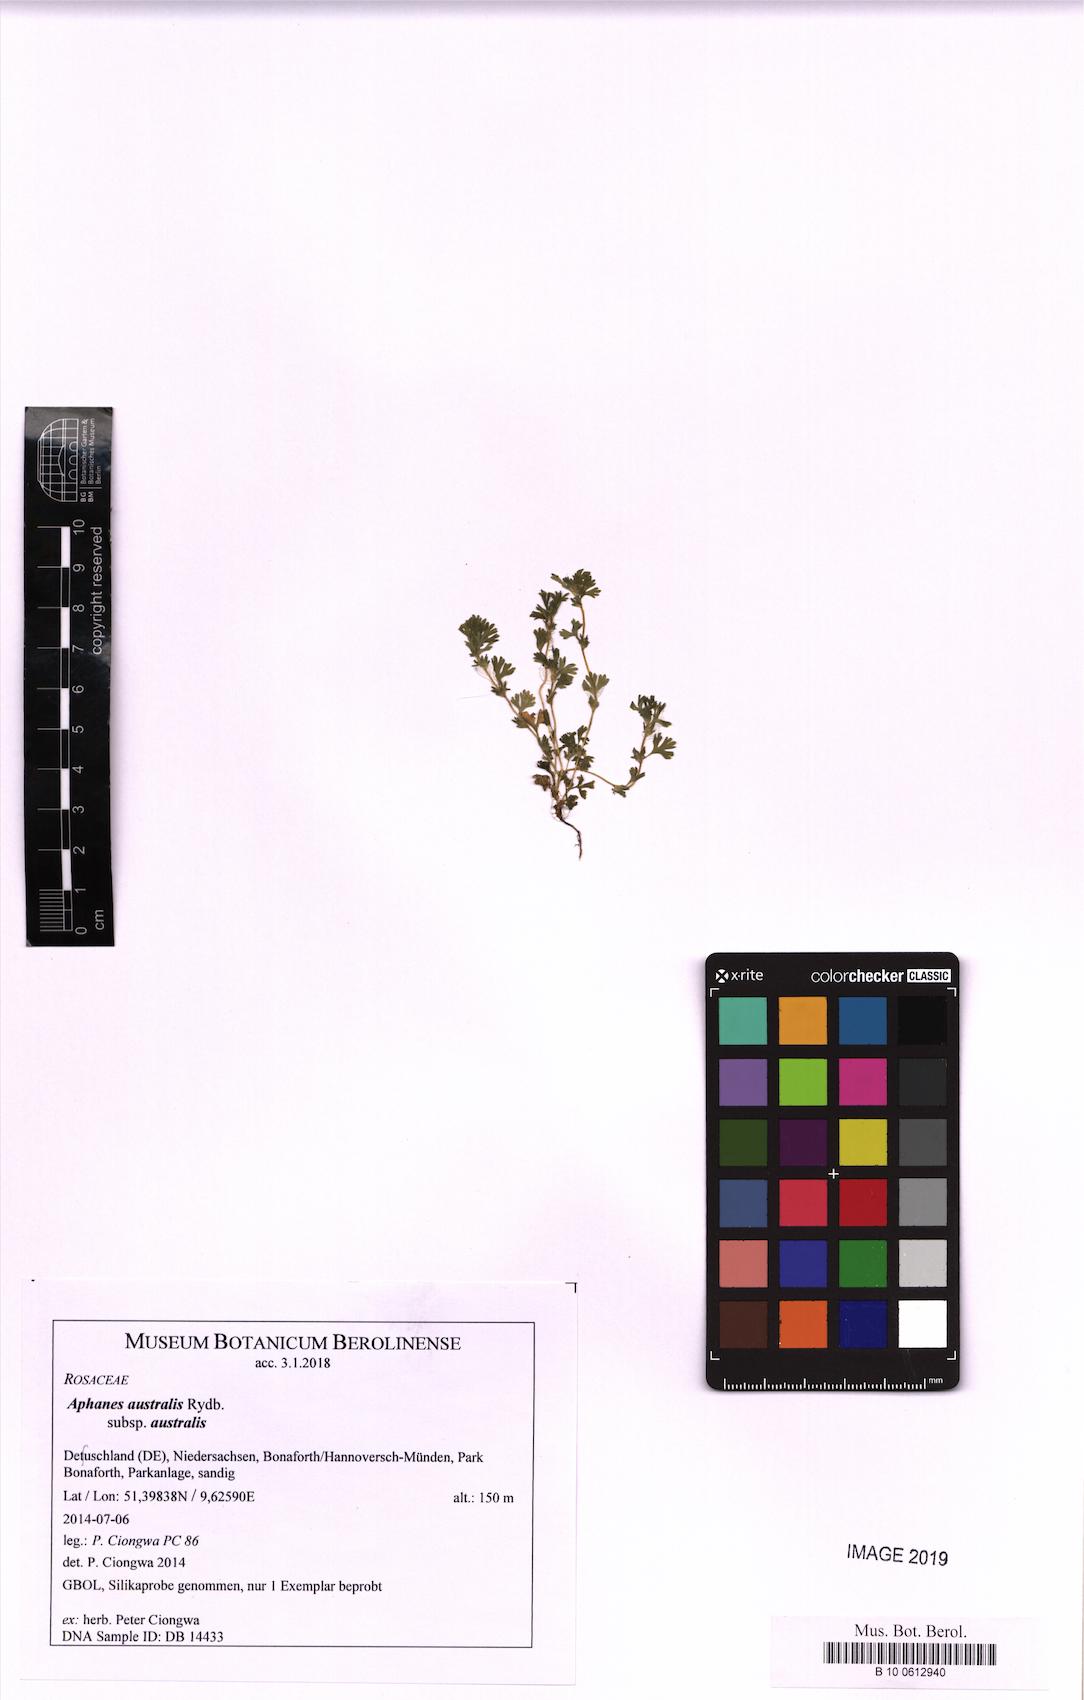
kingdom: Plantae
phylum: Tracheophyta
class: Magnoliopsida
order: Rosales
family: Rosaceae
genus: Aphanes
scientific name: Aphanes australis
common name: Slender parsley-piert
